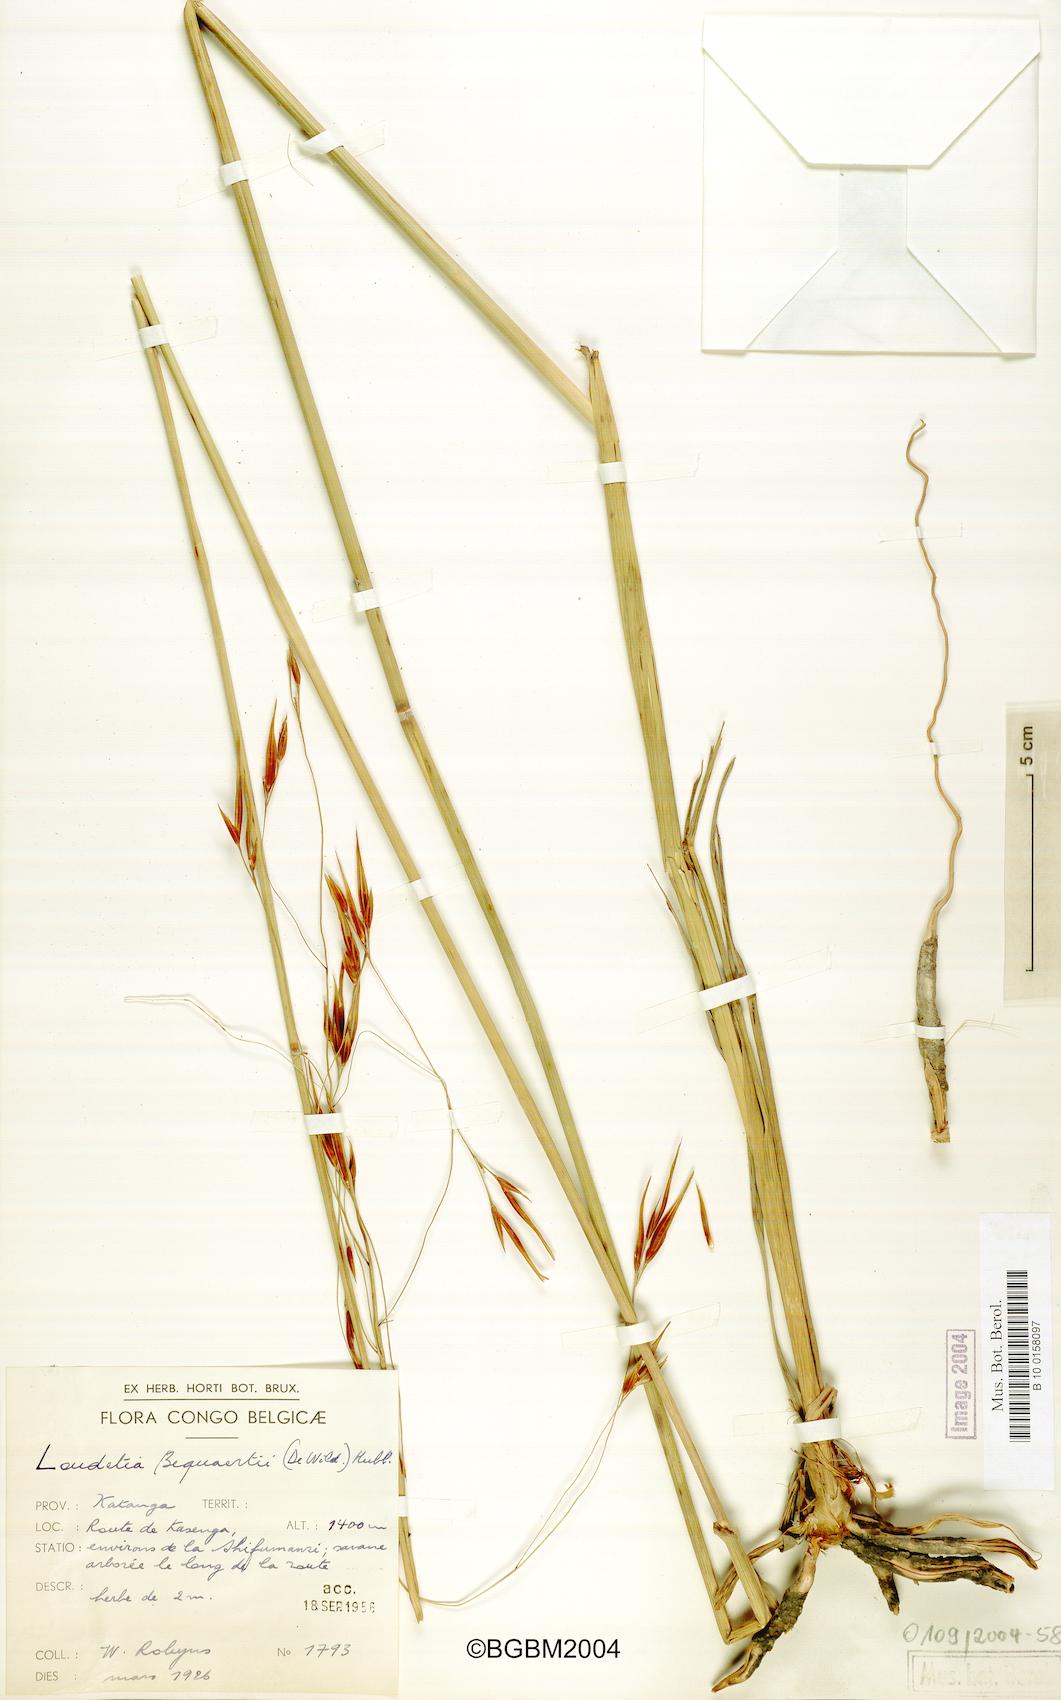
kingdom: Plantae
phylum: Tracheophyta
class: Liliopsida
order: Poales
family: Poaceae
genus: Tristachya
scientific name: Tristachya hubbardiana
